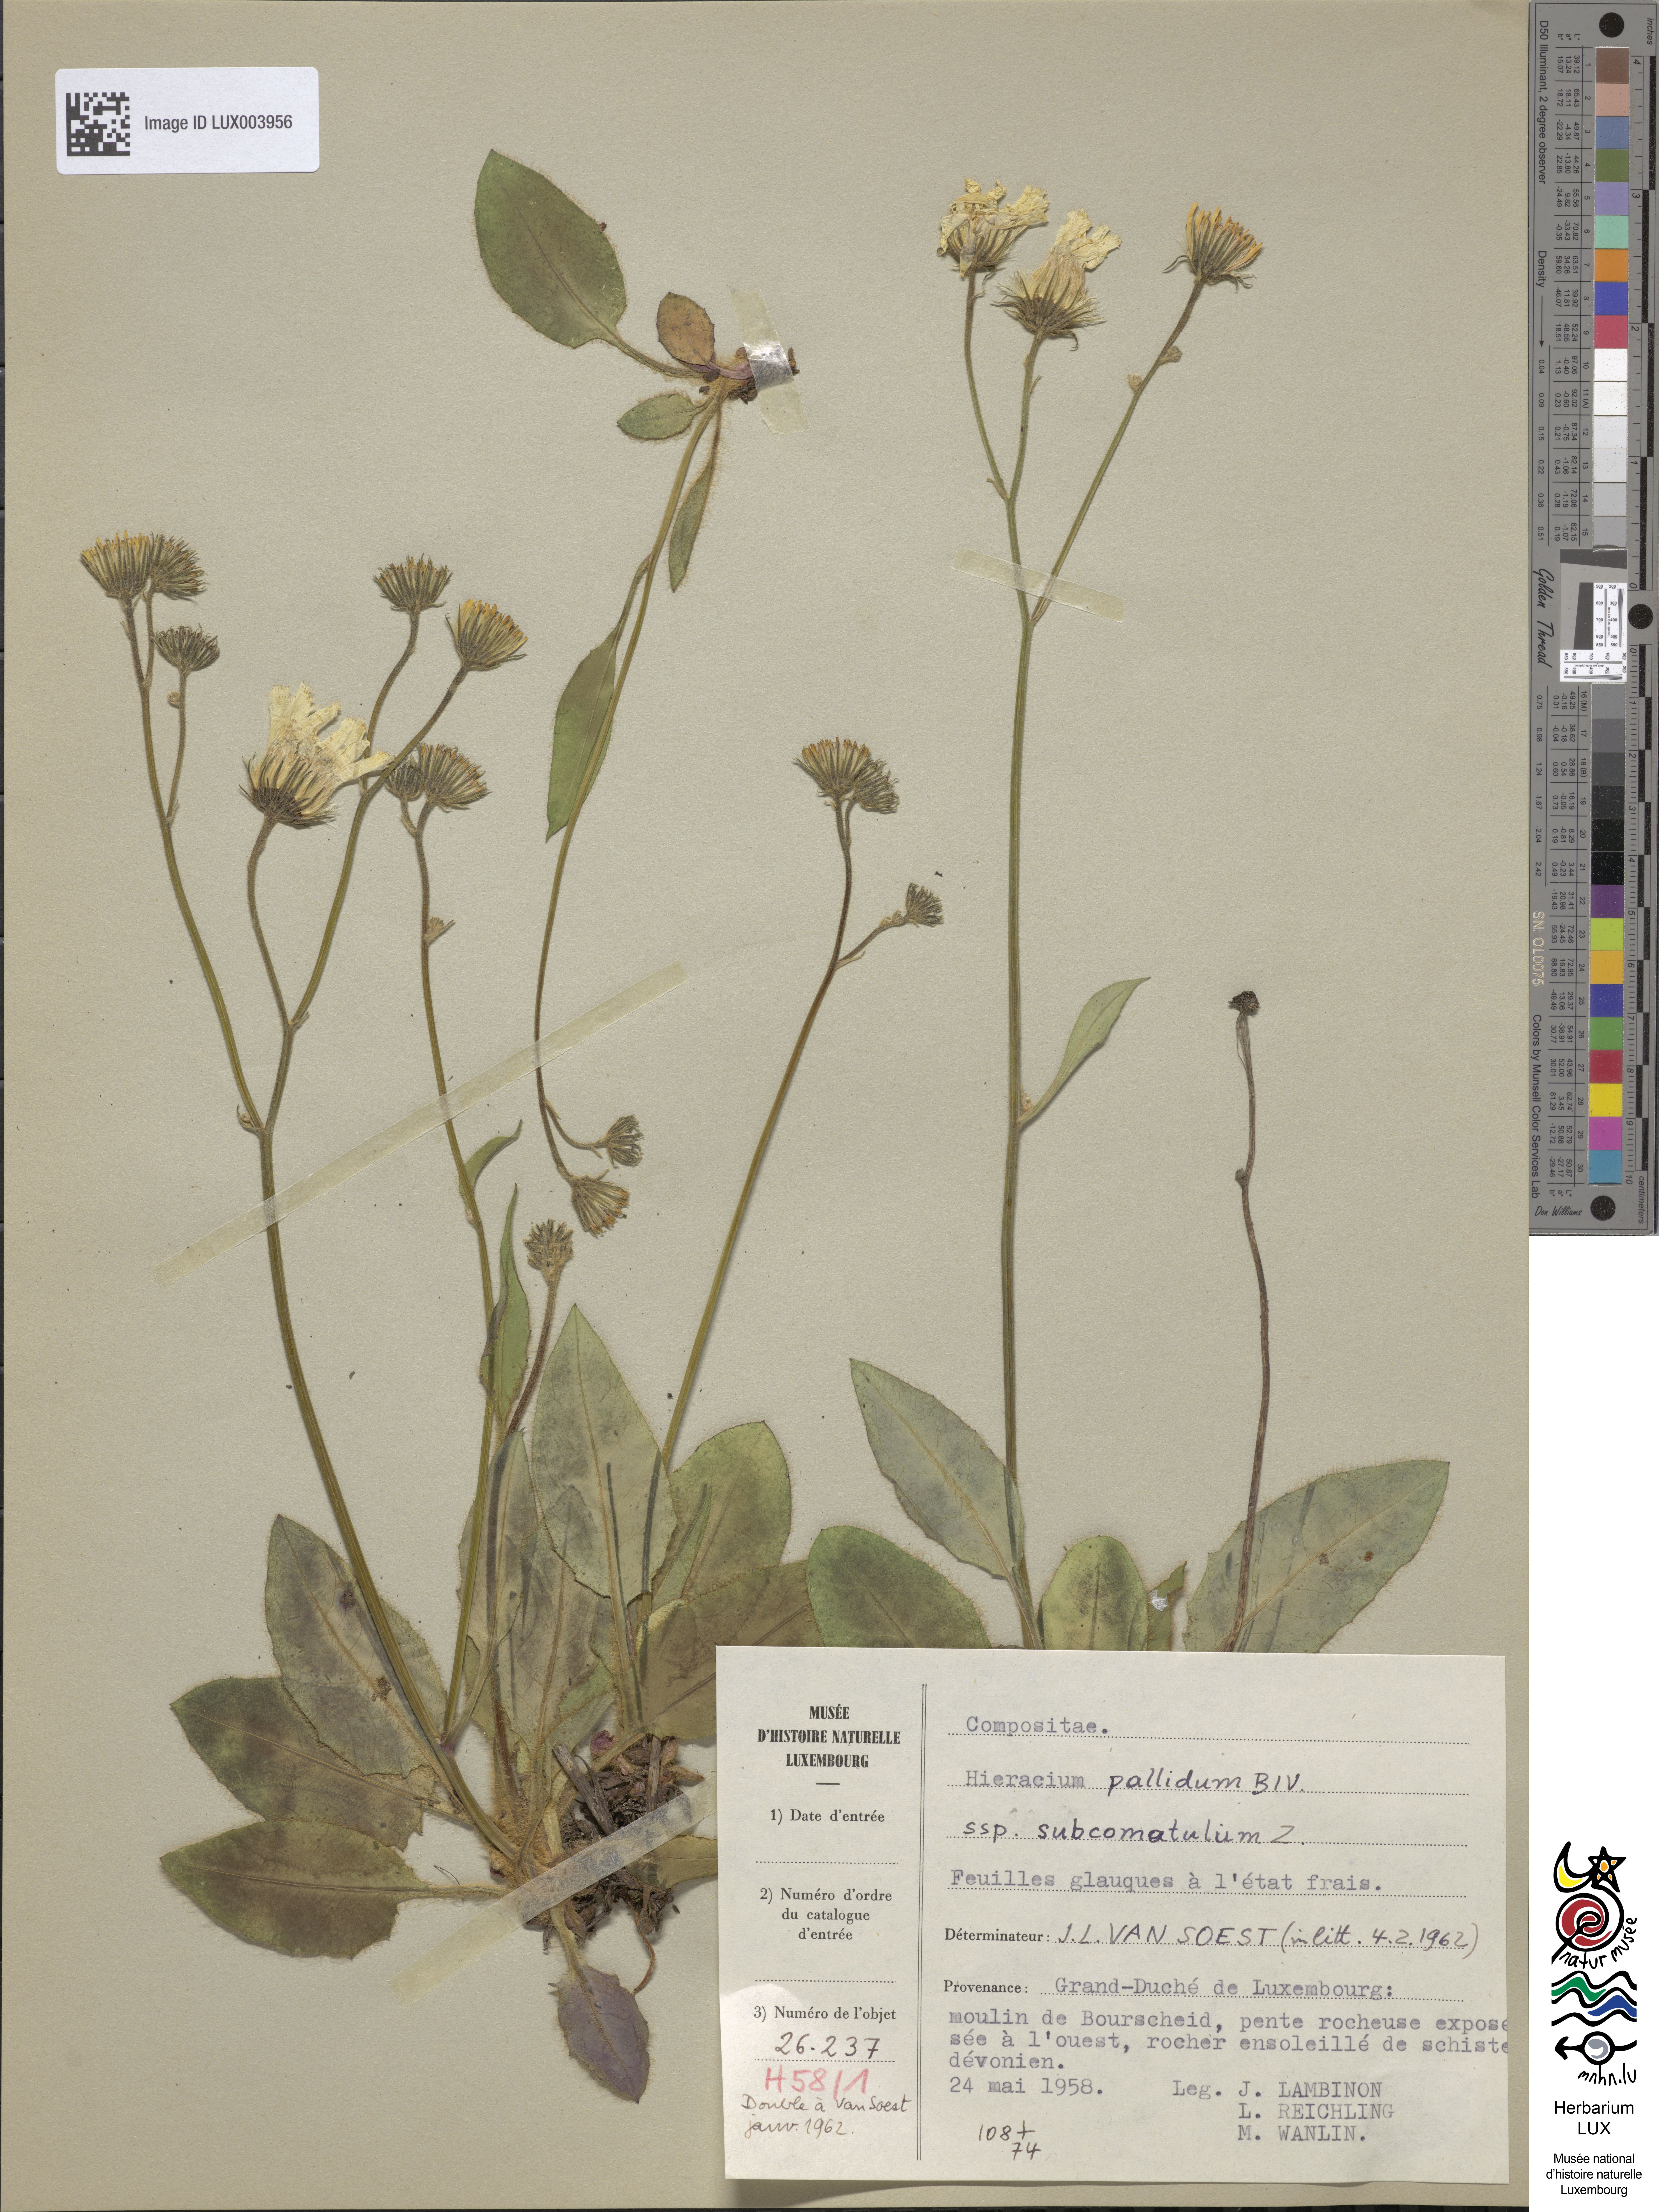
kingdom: Plantae
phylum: Tracheophyta
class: Magnoliopsida
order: Asterales
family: Asteraceae
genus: Hieracium
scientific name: Hieracium schmidtii
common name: Schmidt's hawkweed
